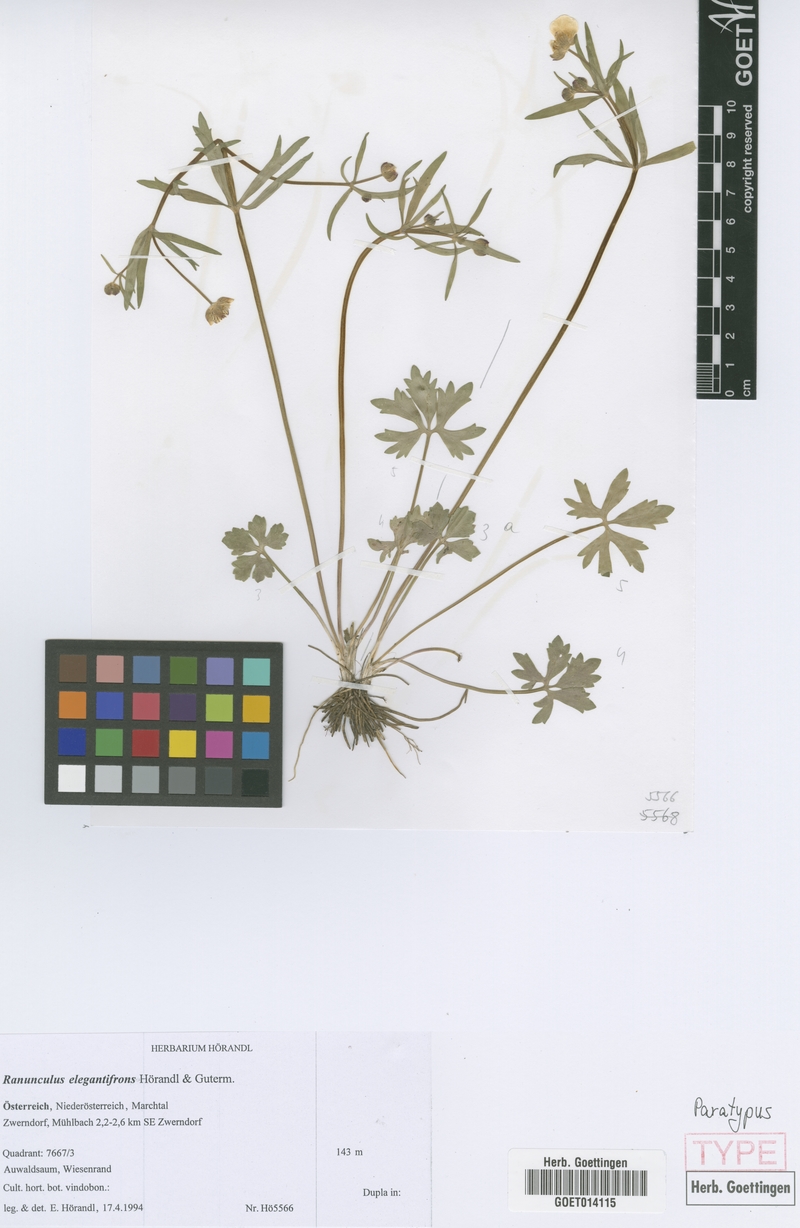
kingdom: Plantae
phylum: Tracheophyta
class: Magnoliopsida
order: Ranunculales
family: Ranunculaceae
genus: Ranunculus
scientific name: Ranunculus elegantifrons
